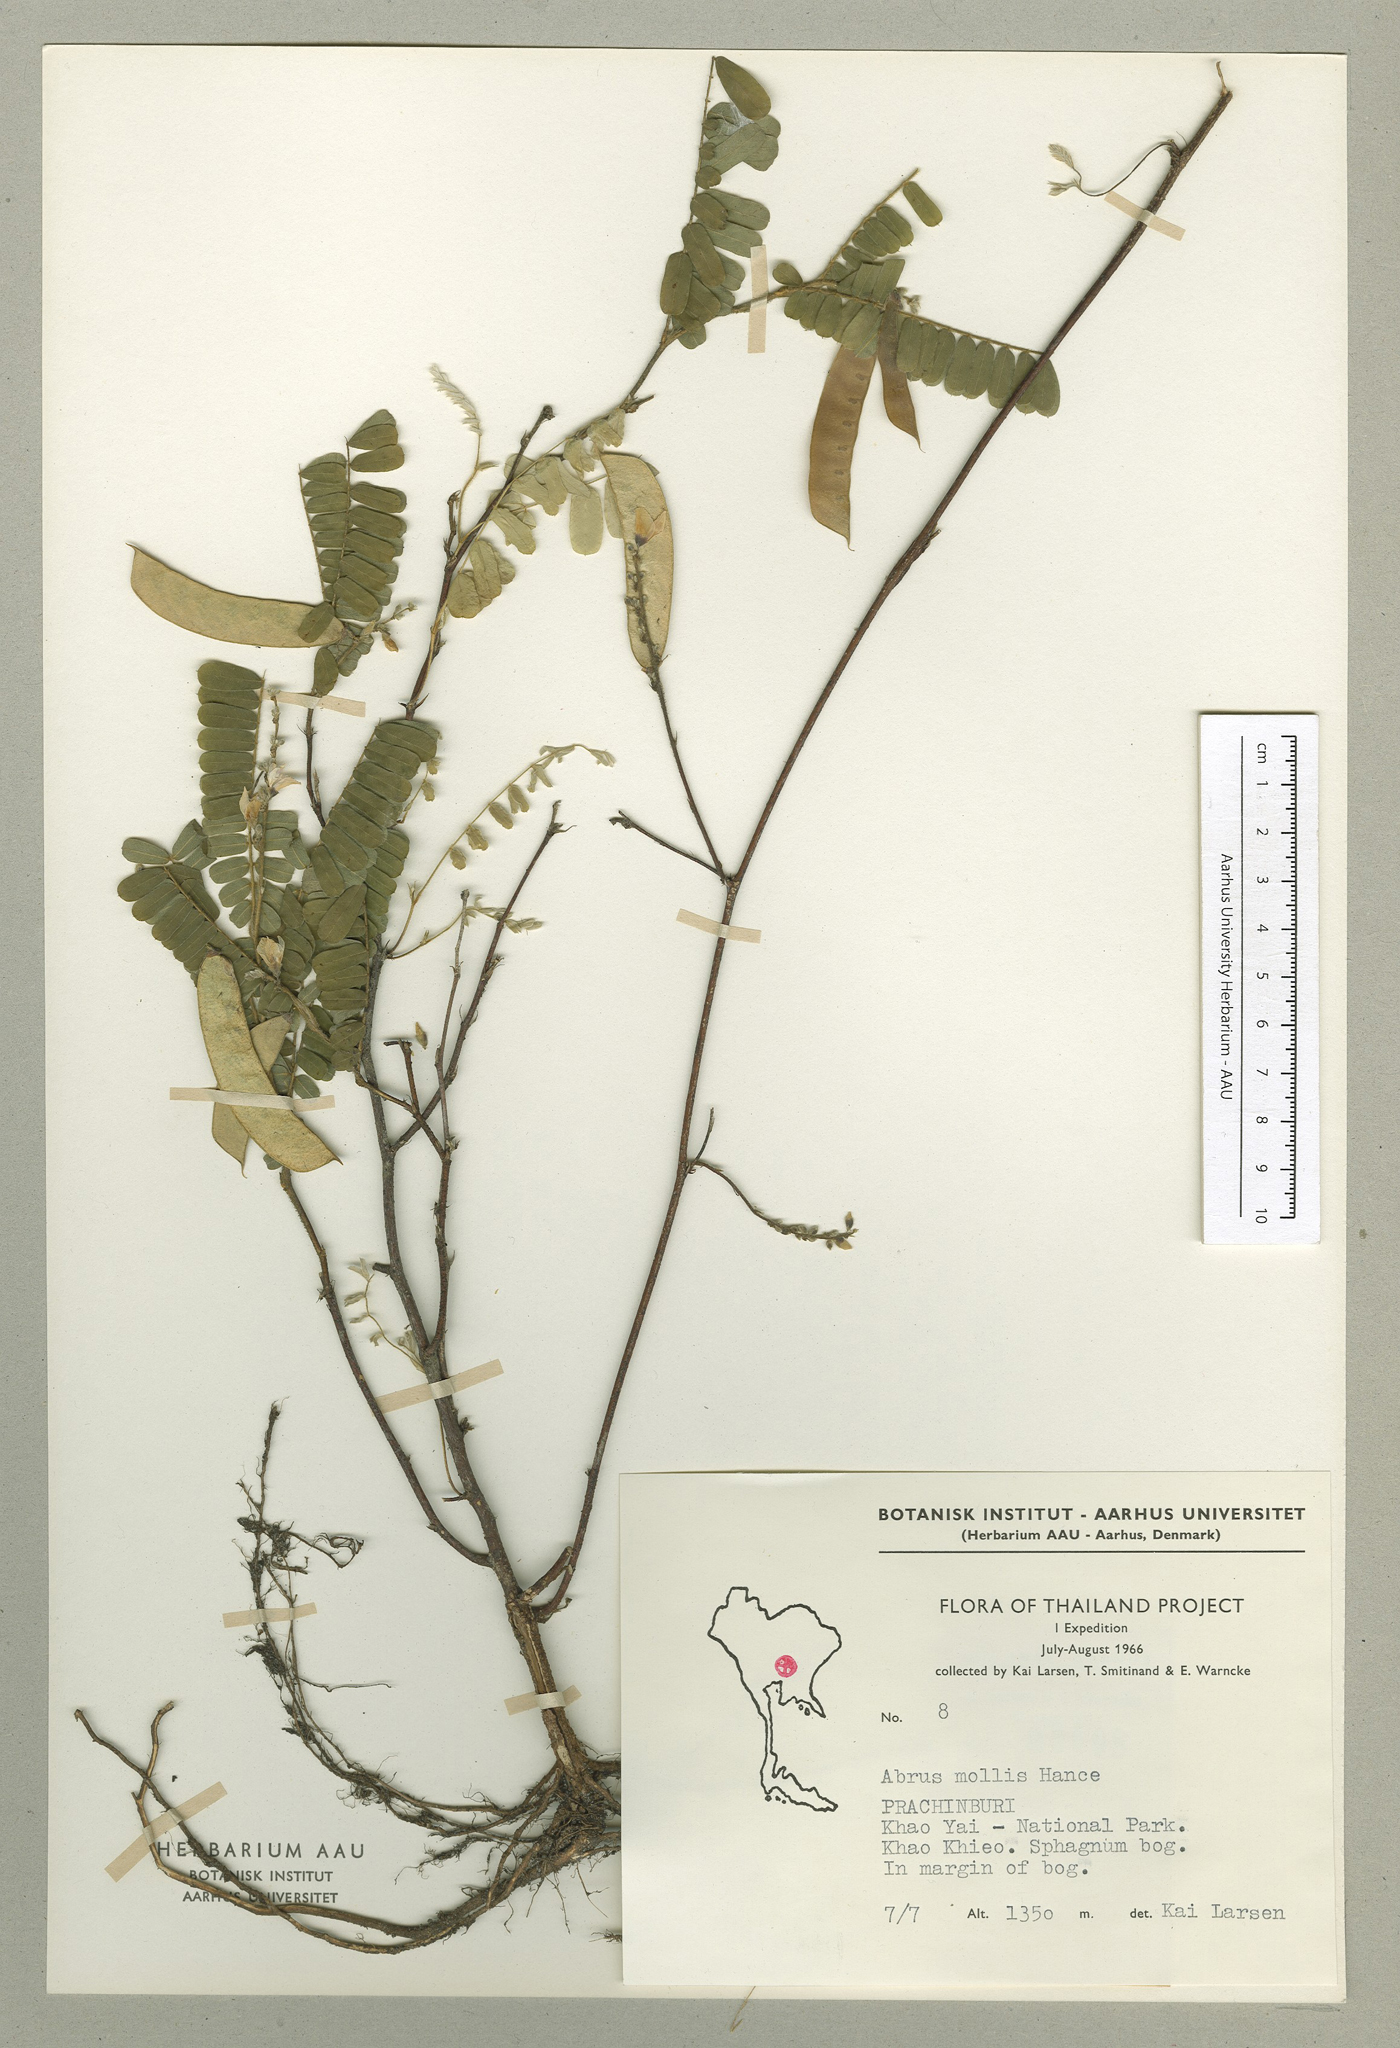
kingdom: Plantae
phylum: Tracheophyta
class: Magnoliopsida
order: Fabales
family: Fabaceae
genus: Abrus
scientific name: Abrus melanospermus
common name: Licorice-root
